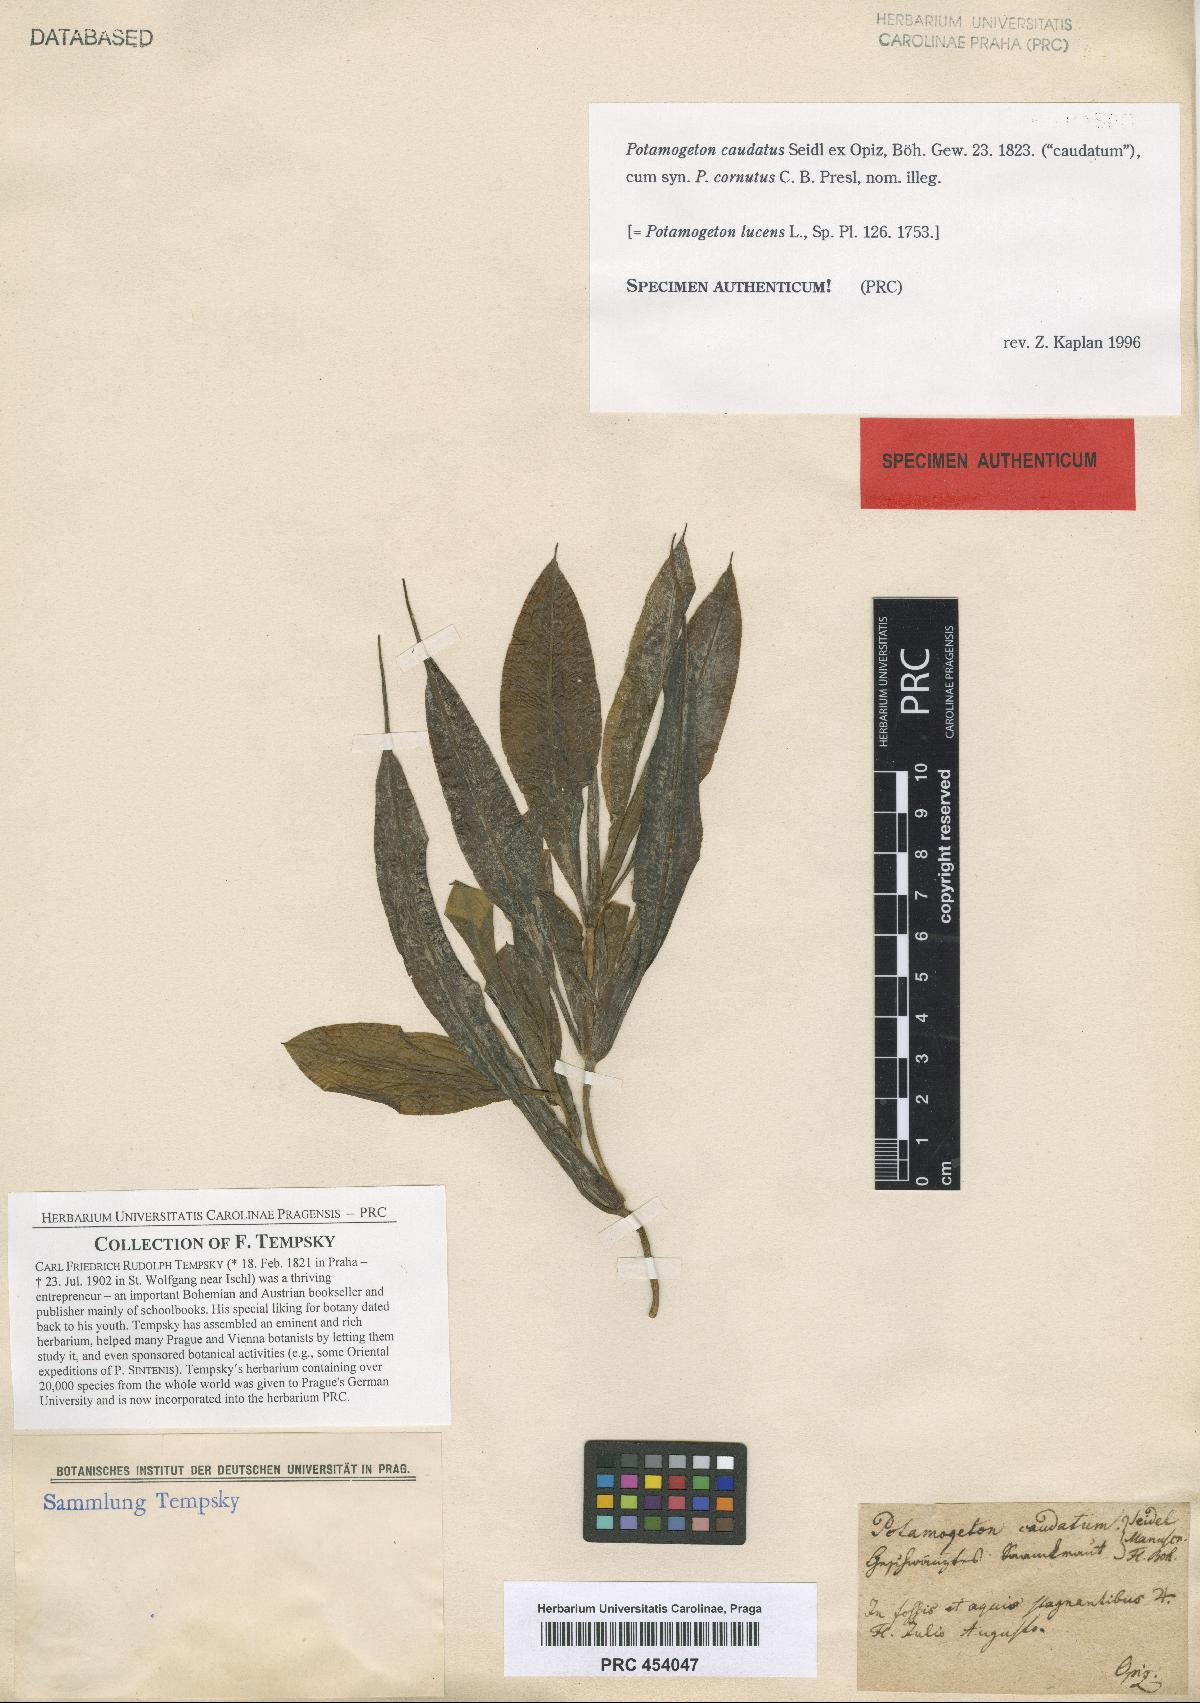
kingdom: Plantae
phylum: Tracheophyta
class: Liliopsida
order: Alismatales
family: Potamogetonaceae
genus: Potamogeton
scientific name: Potamogeton lucens
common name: Shining pondweed
